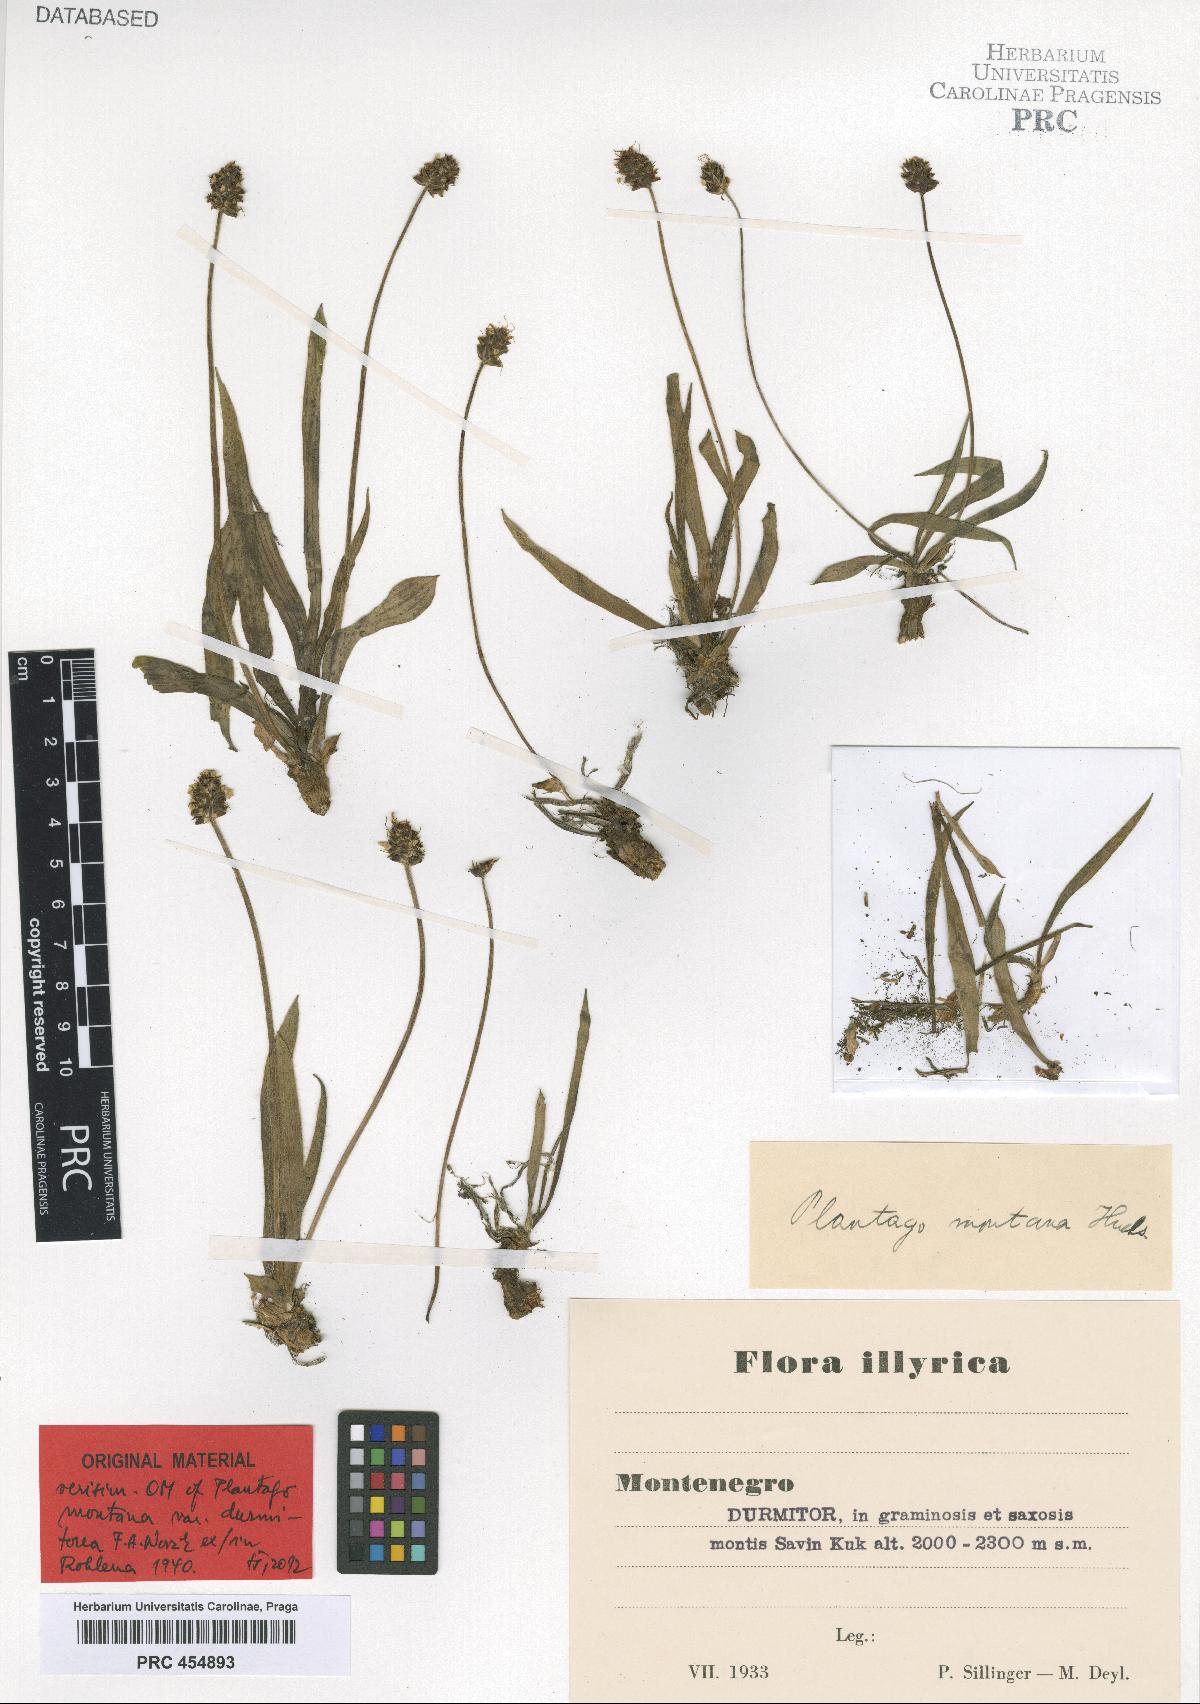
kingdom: Plantae
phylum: Tracheophyta
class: Magnoliopsida
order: Lamiales
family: Plantaginaceae
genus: Plantago
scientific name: Plantago
